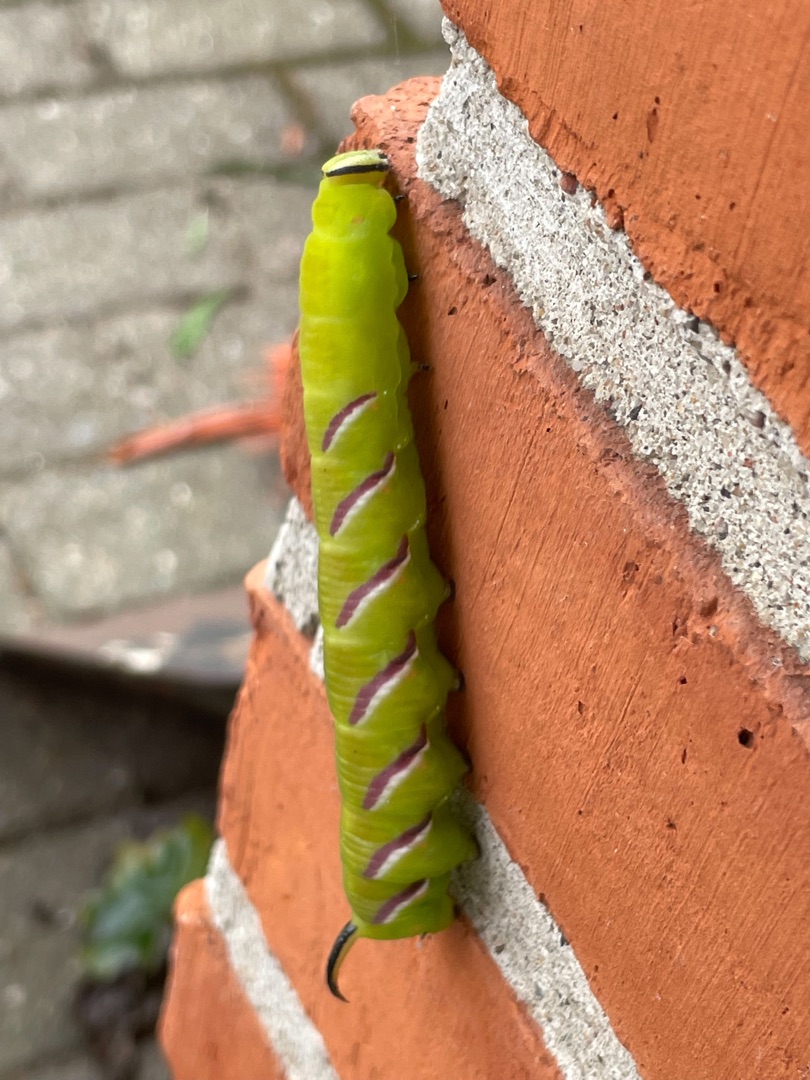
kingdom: Animalia
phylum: Arthropoda
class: Insecta
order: Lepidoptera
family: Sphingidae
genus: Sphinx
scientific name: Sphinx ligustri
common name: Ligustersværmer
